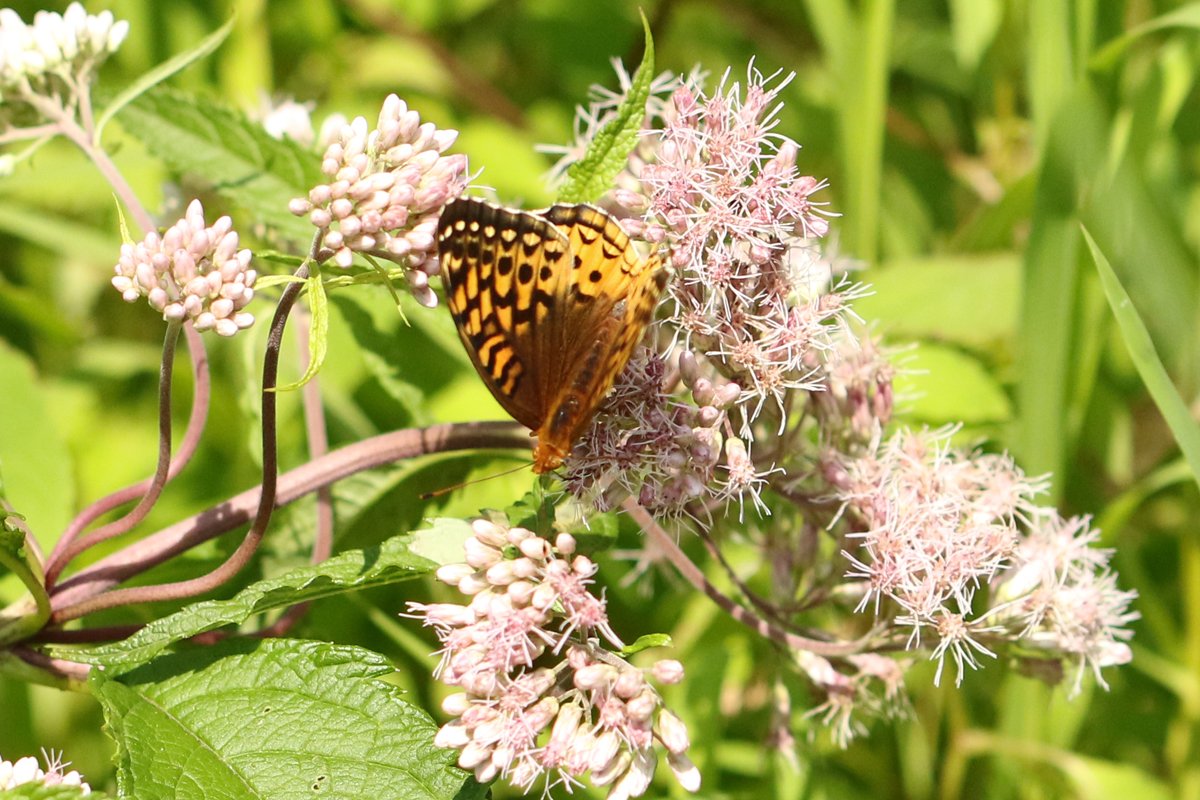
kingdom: Animalia
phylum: Arthropoda
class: Insecta
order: Lepidoptera
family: Nymphalidae
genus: Speyeria
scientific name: Speyeria cybele
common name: Great Spangled Fritillary
